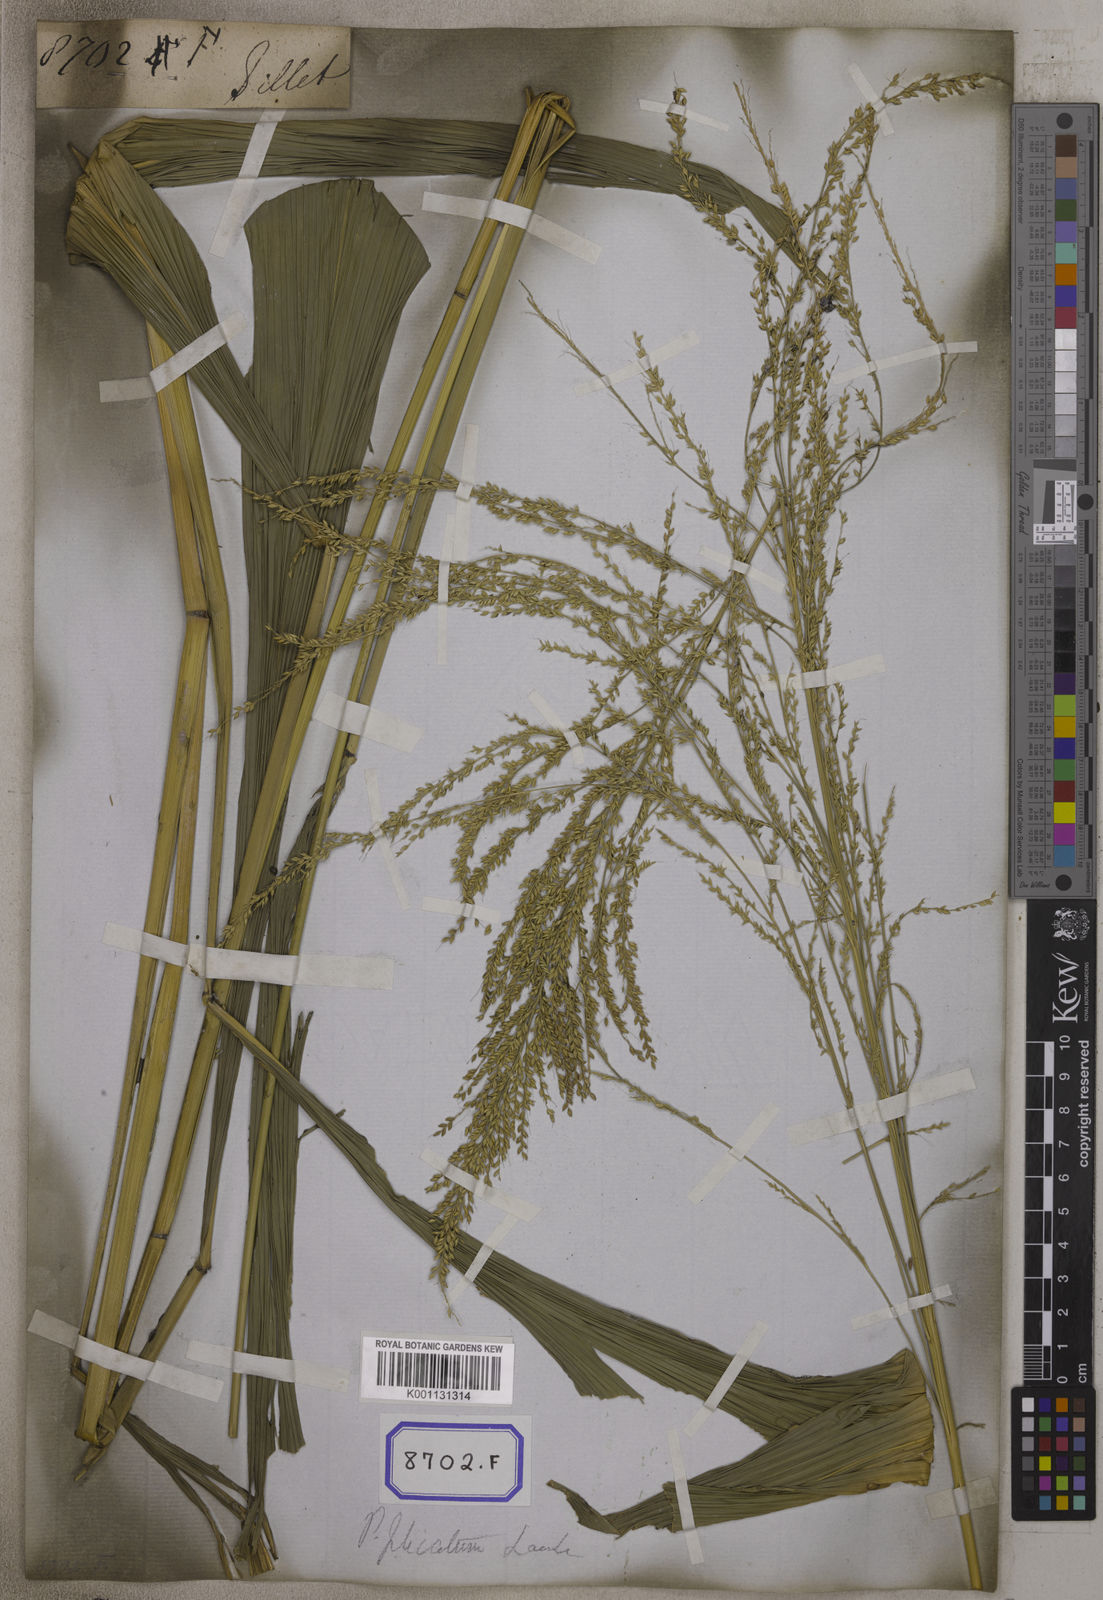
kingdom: Plantae
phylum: Tracheophyta
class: Liliopsida
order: Poales
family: Poaceae
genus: Setaria
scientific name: Setaria palmifolia
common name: Broadleaved bristlegrass
